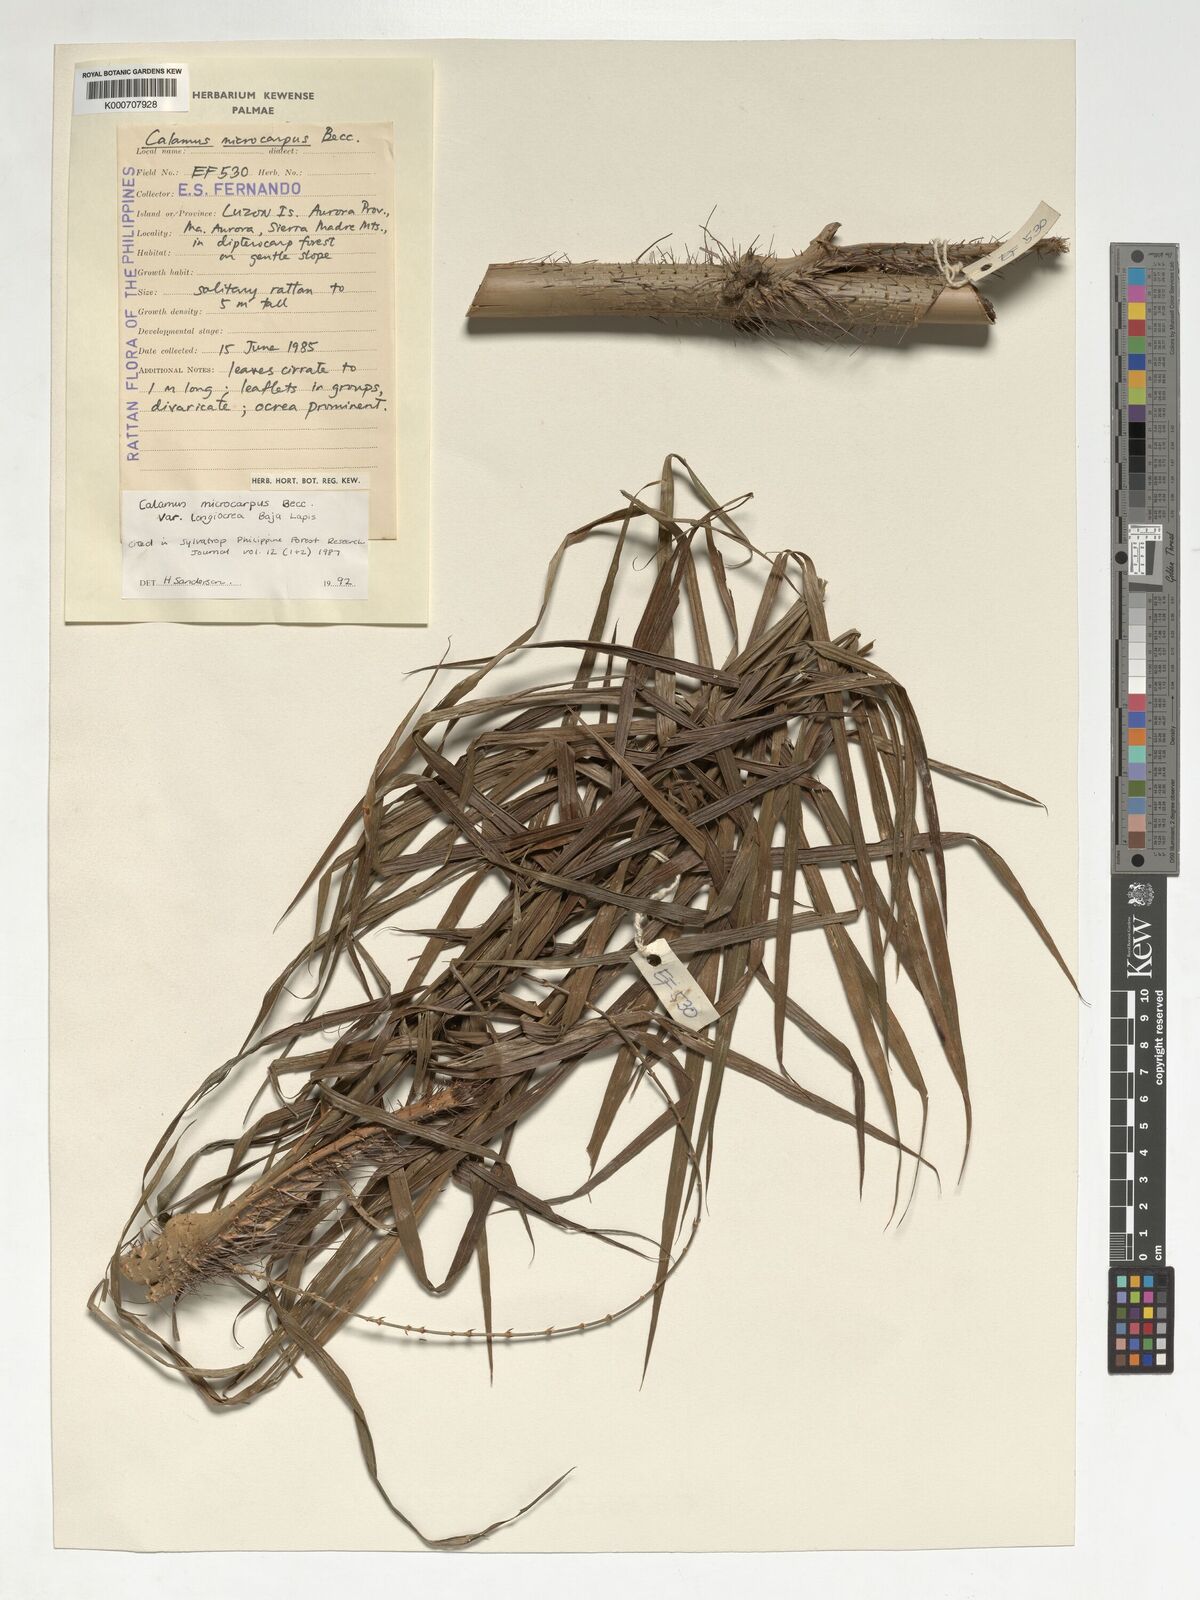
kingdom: Plantae
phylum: Tracheophyta
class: Liliopsida
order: Arecales
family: Arecaceae
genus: Calamus
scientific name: Calamus siphonospathus
